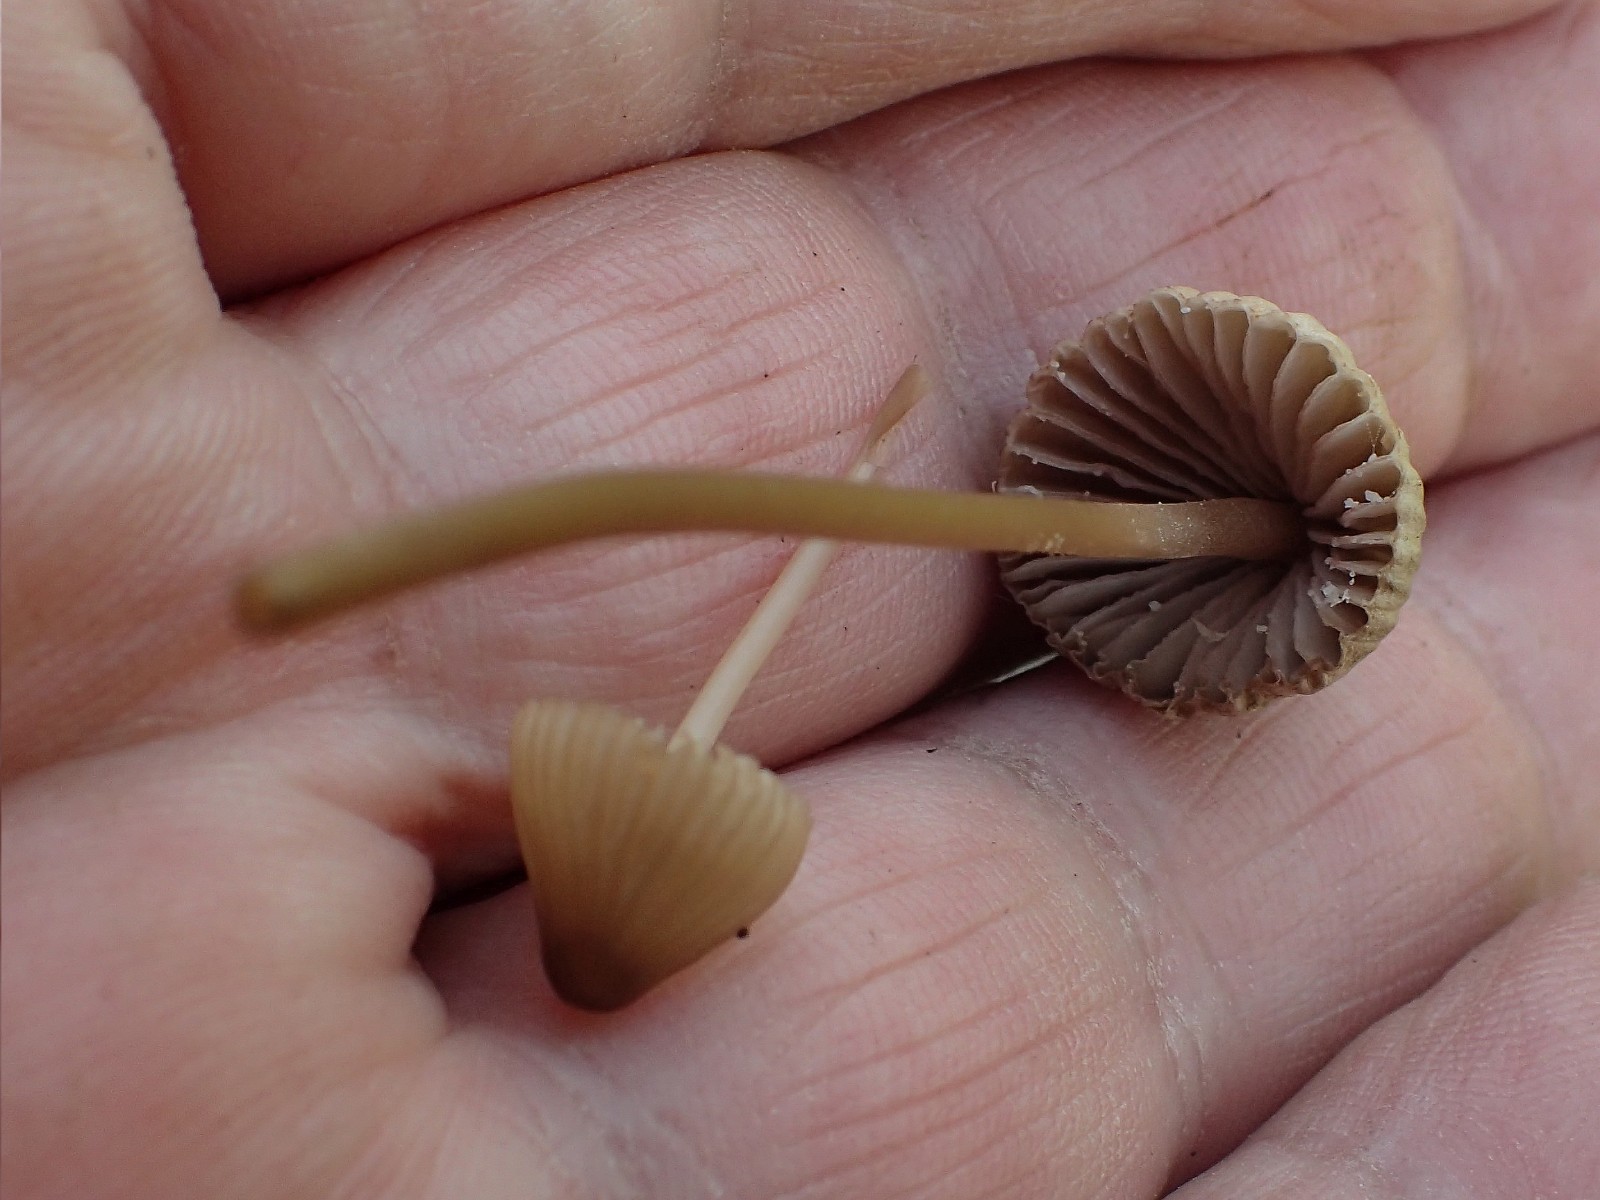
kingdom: Fungi
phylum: Basidiomycota
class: Agaricomycetes
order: Agaricales
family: Mycenaceae
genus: Mycena
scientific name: Mycena olivaceomarginata
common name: brunægget huesvamp
